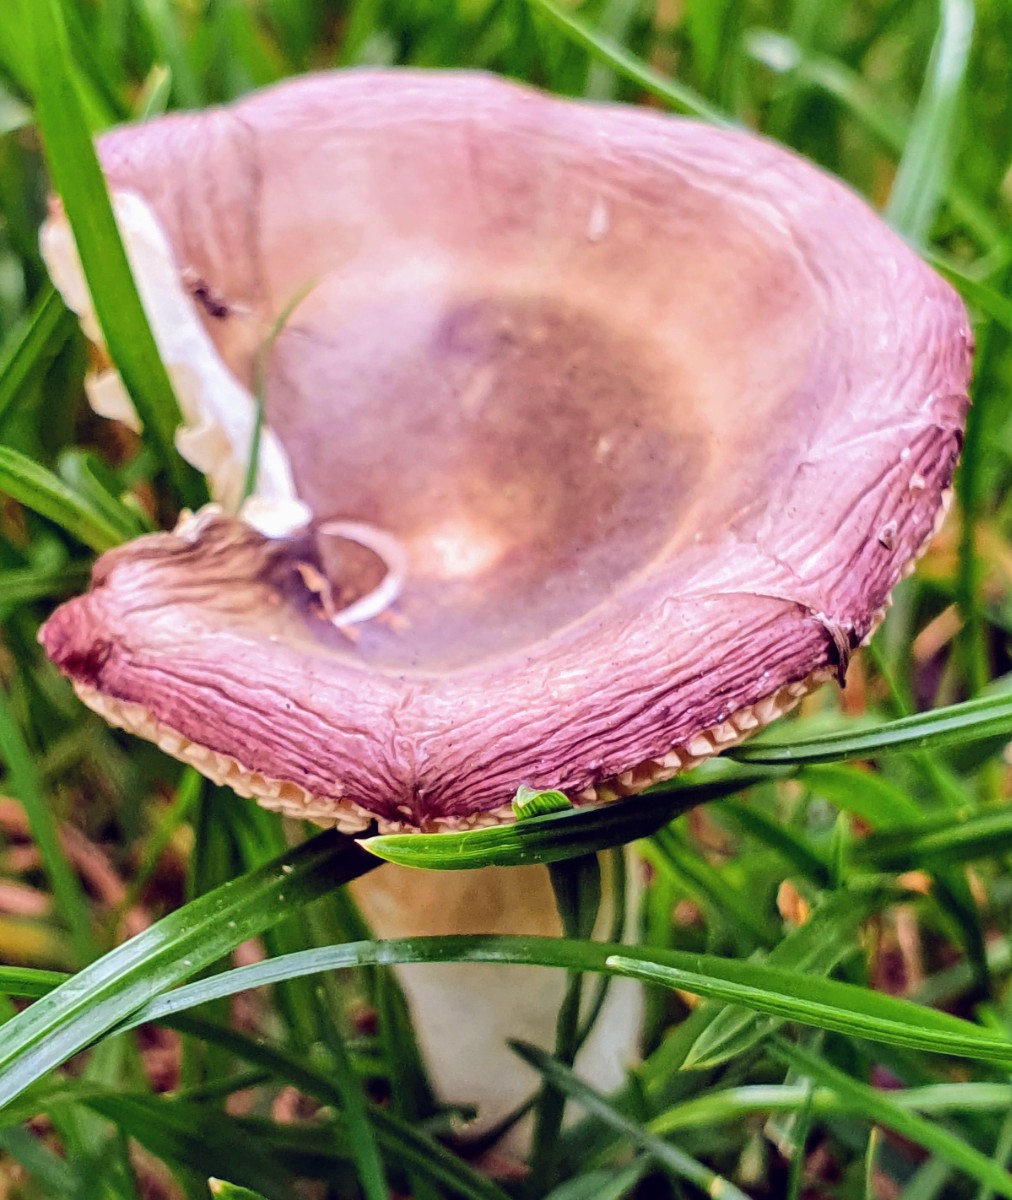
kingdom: Fungi
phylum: Basidiomycota
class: Agaricomycetes
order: Russulales
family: Russulaceae
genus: Russula
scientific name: Russula
